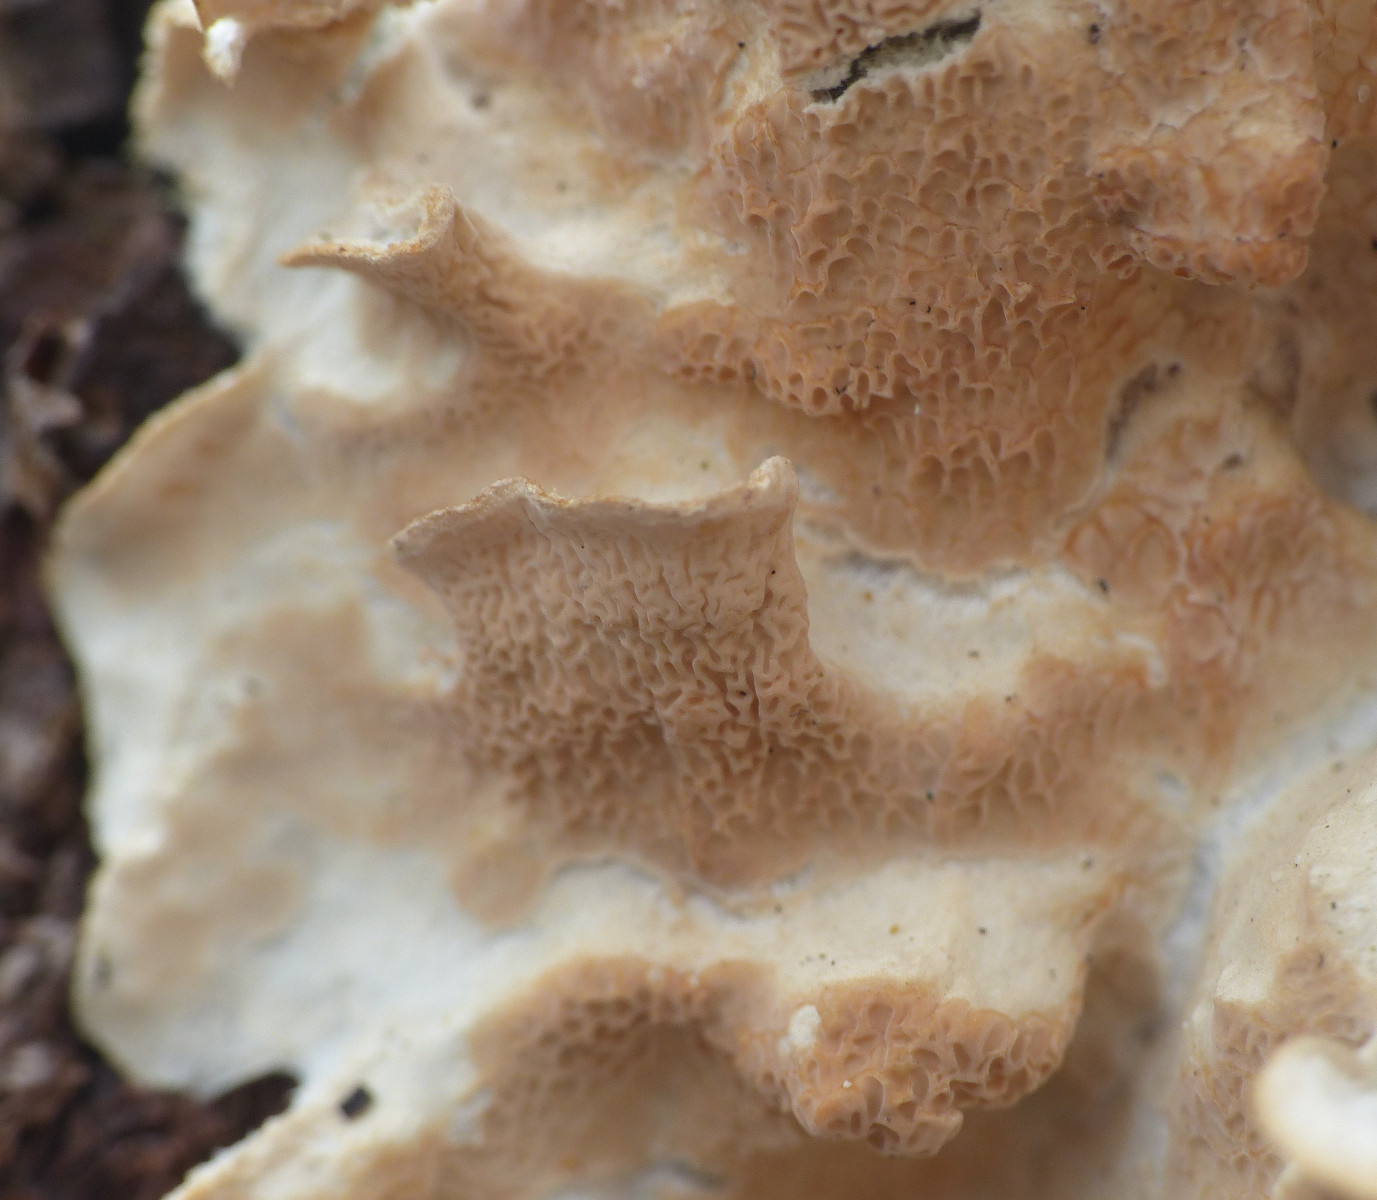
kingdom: Fungi
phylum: Basidiomycota
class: Agaricomycetes
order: Polyporales
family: Incrustoporiaceae
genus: Skeletocutis
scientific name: Skeletocutis amorpha
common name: orange krystalporesvamp
